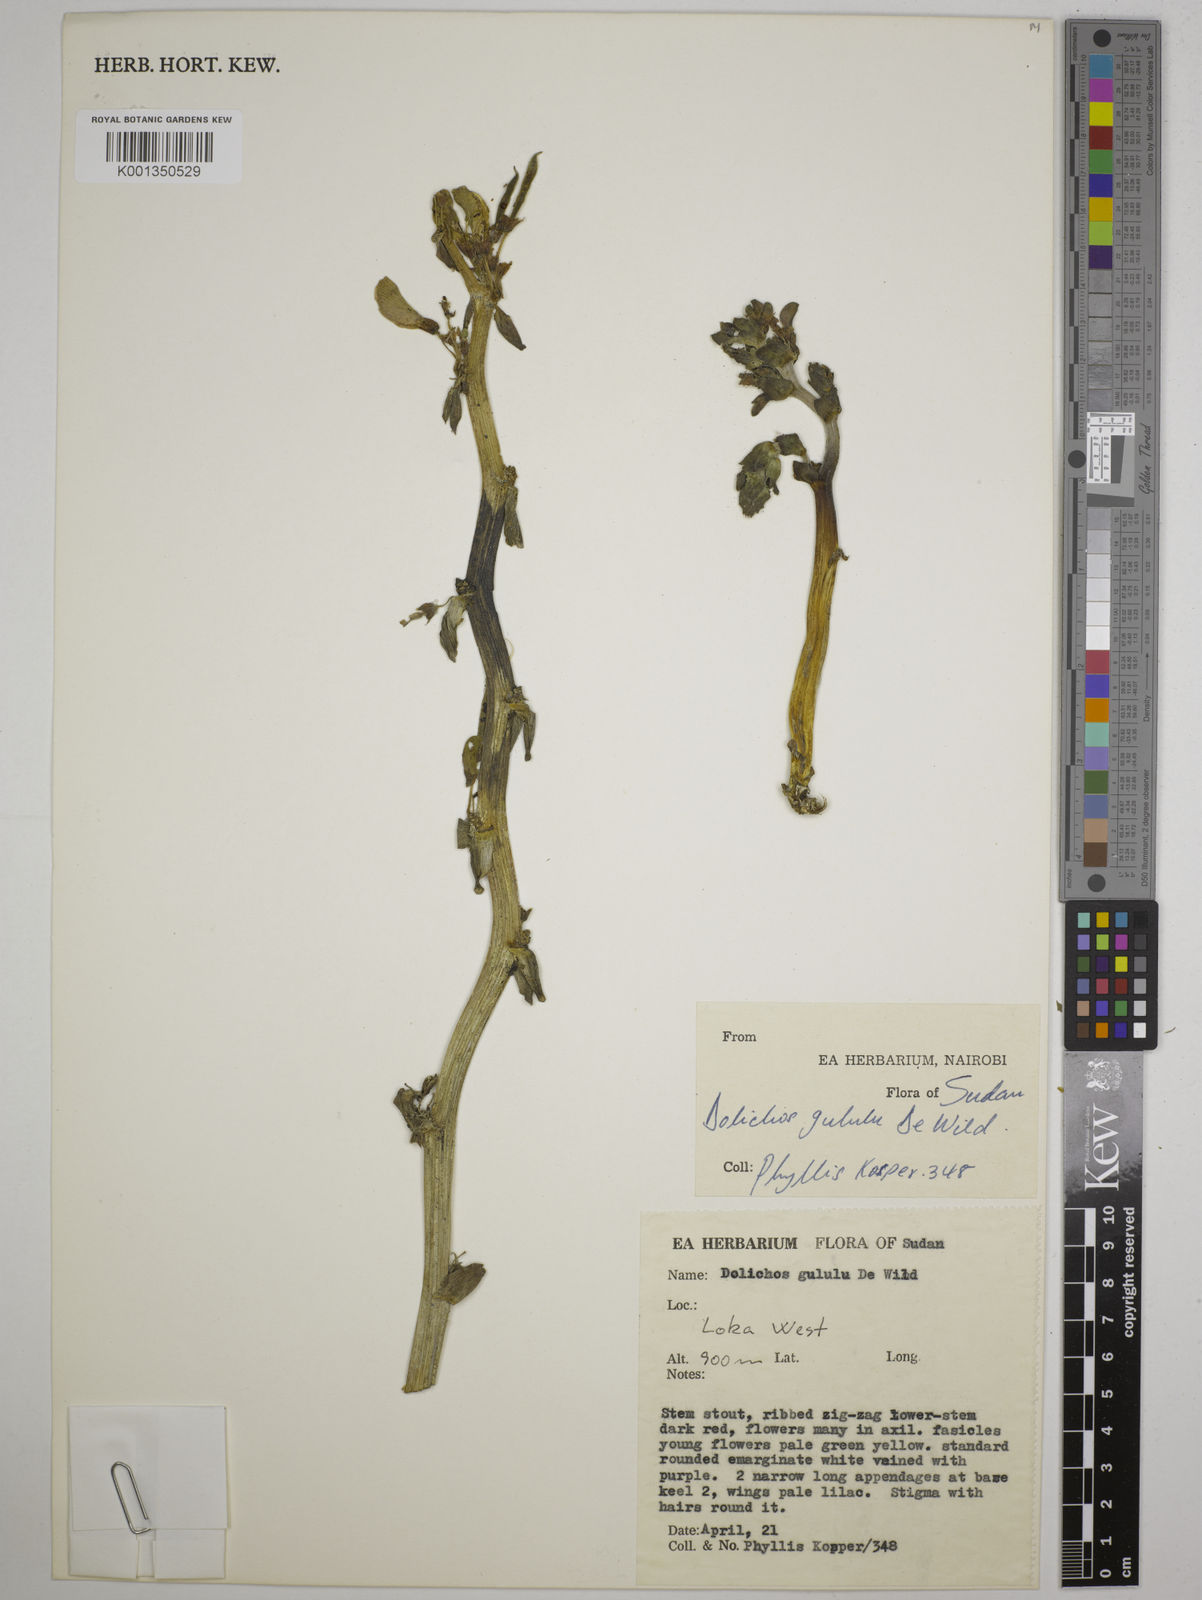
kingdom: Plantae
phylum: Tracheophyta
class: Magnoliopsida
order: Fabales
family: Fabaceae
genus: Dolichos
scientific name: Dolichos gululu
